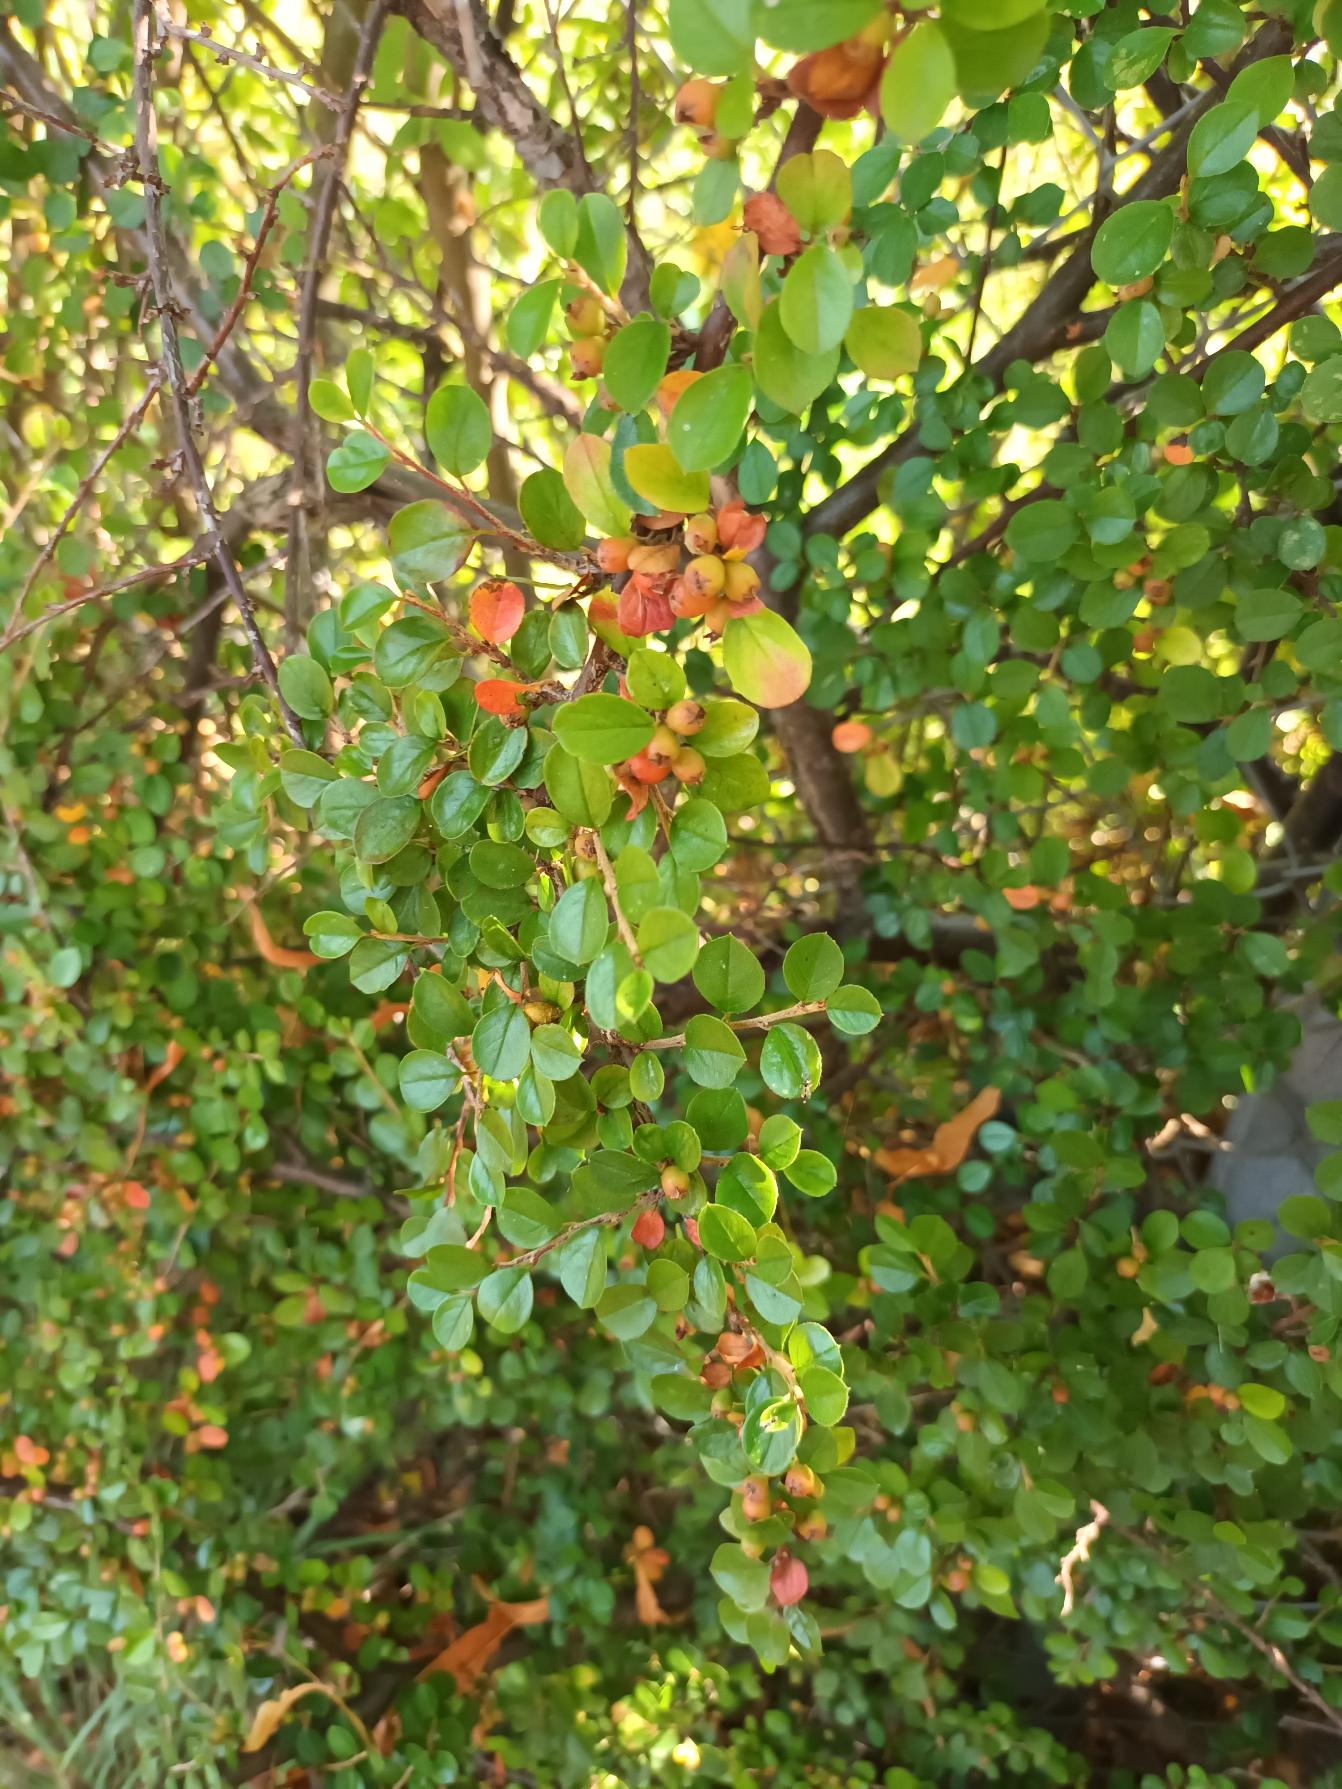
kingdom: Plantae
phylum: Tracheophyta
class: Magnoliopsida
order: Rosales
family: Rosaceae
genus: Cotoneaster
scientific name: Cotoneaster hjelmqvistii
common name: Hjelmqvists dværgmispel
